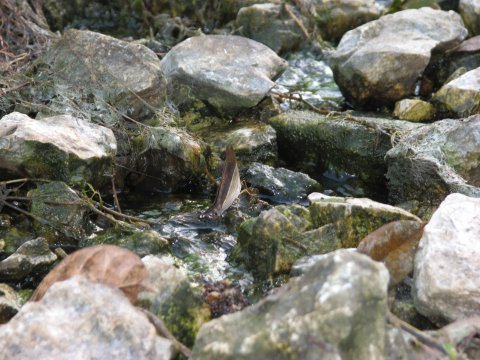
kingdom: Animalia
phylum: Arthropoda
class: Insecta
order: Lepidoptera
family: Nymphalidae
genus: Marpesia
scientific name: Marpesia chiron
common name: Many-banded Daggerwing
